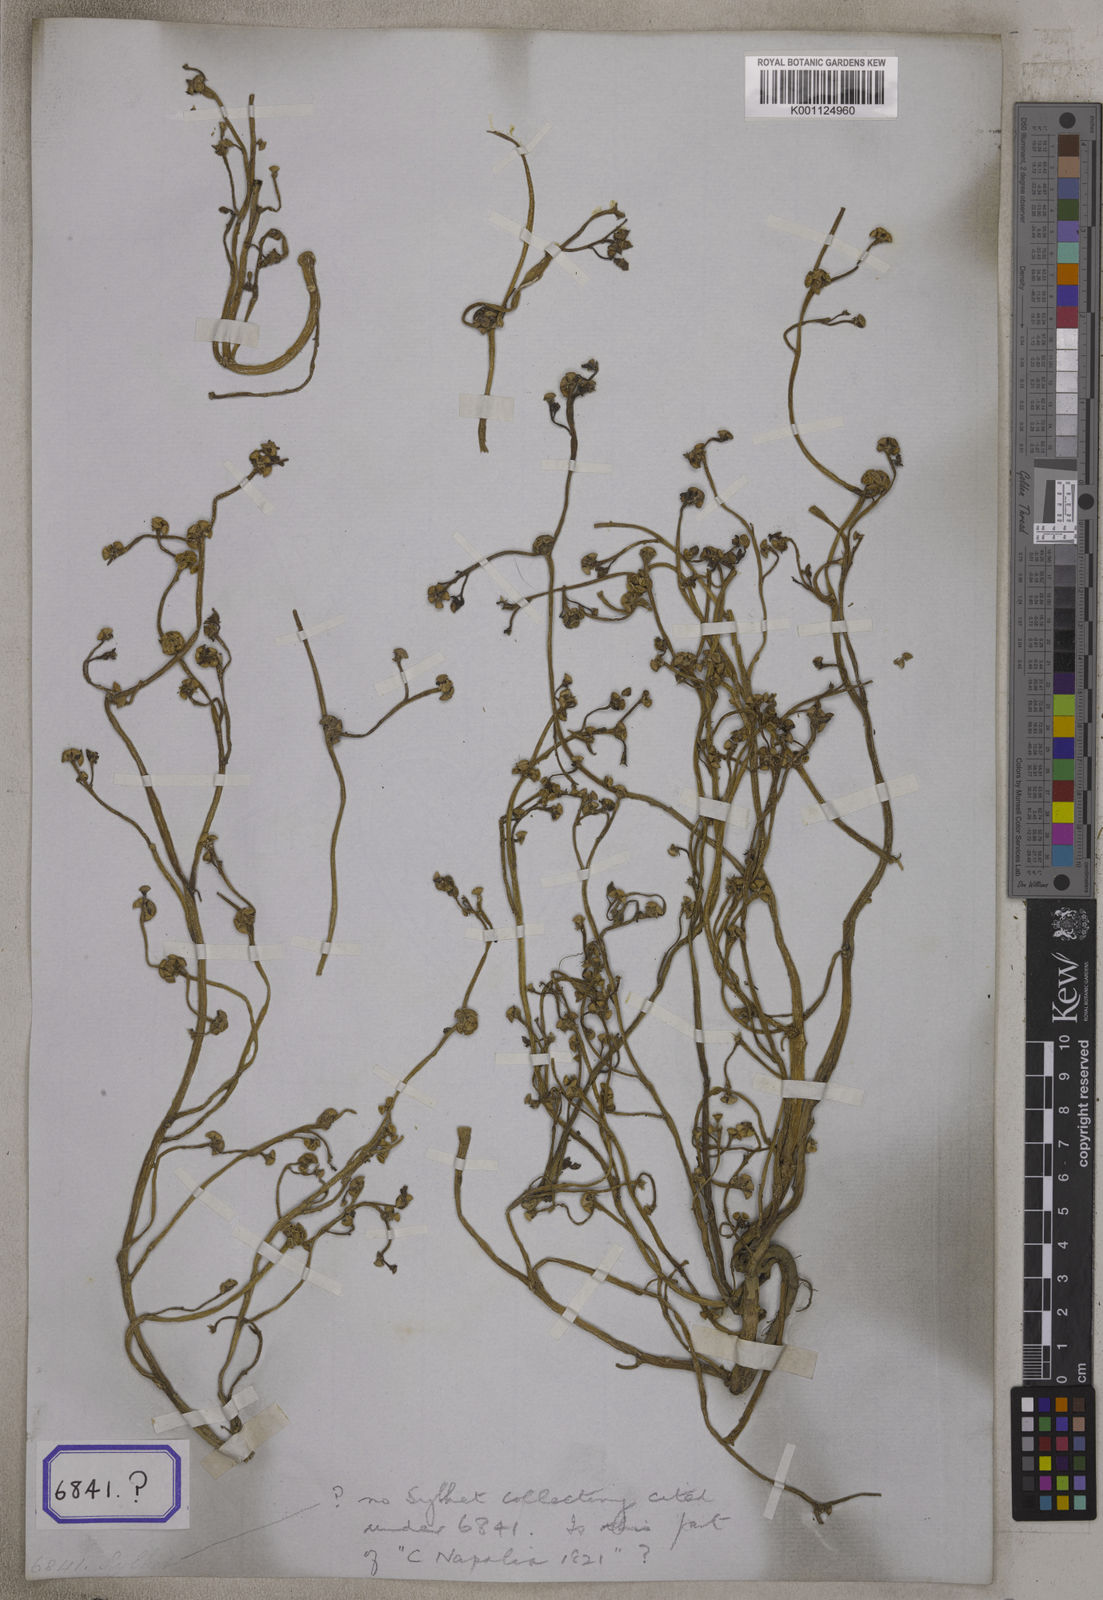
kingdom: Plantae
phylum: Tracheophyta
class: Magnoliopsida
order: Caryophyllales
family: Portulacaceae
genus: Portulaca
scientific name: Portulaca oleracea
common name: Common purslane
